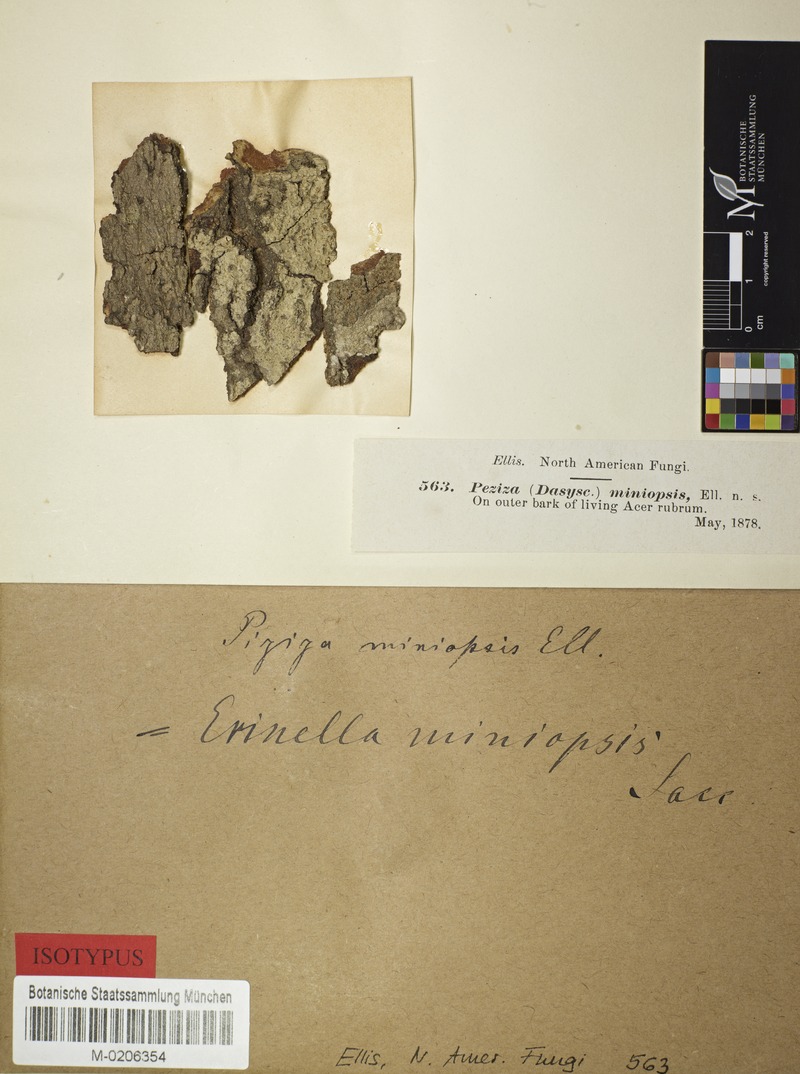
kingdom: Fungi
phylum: Ascomycota
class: Leotiomycetes
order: Helotiales
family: Arachnopezizaceae
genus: Parachnopeziza
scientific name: Parachnopeziza miniopsis
